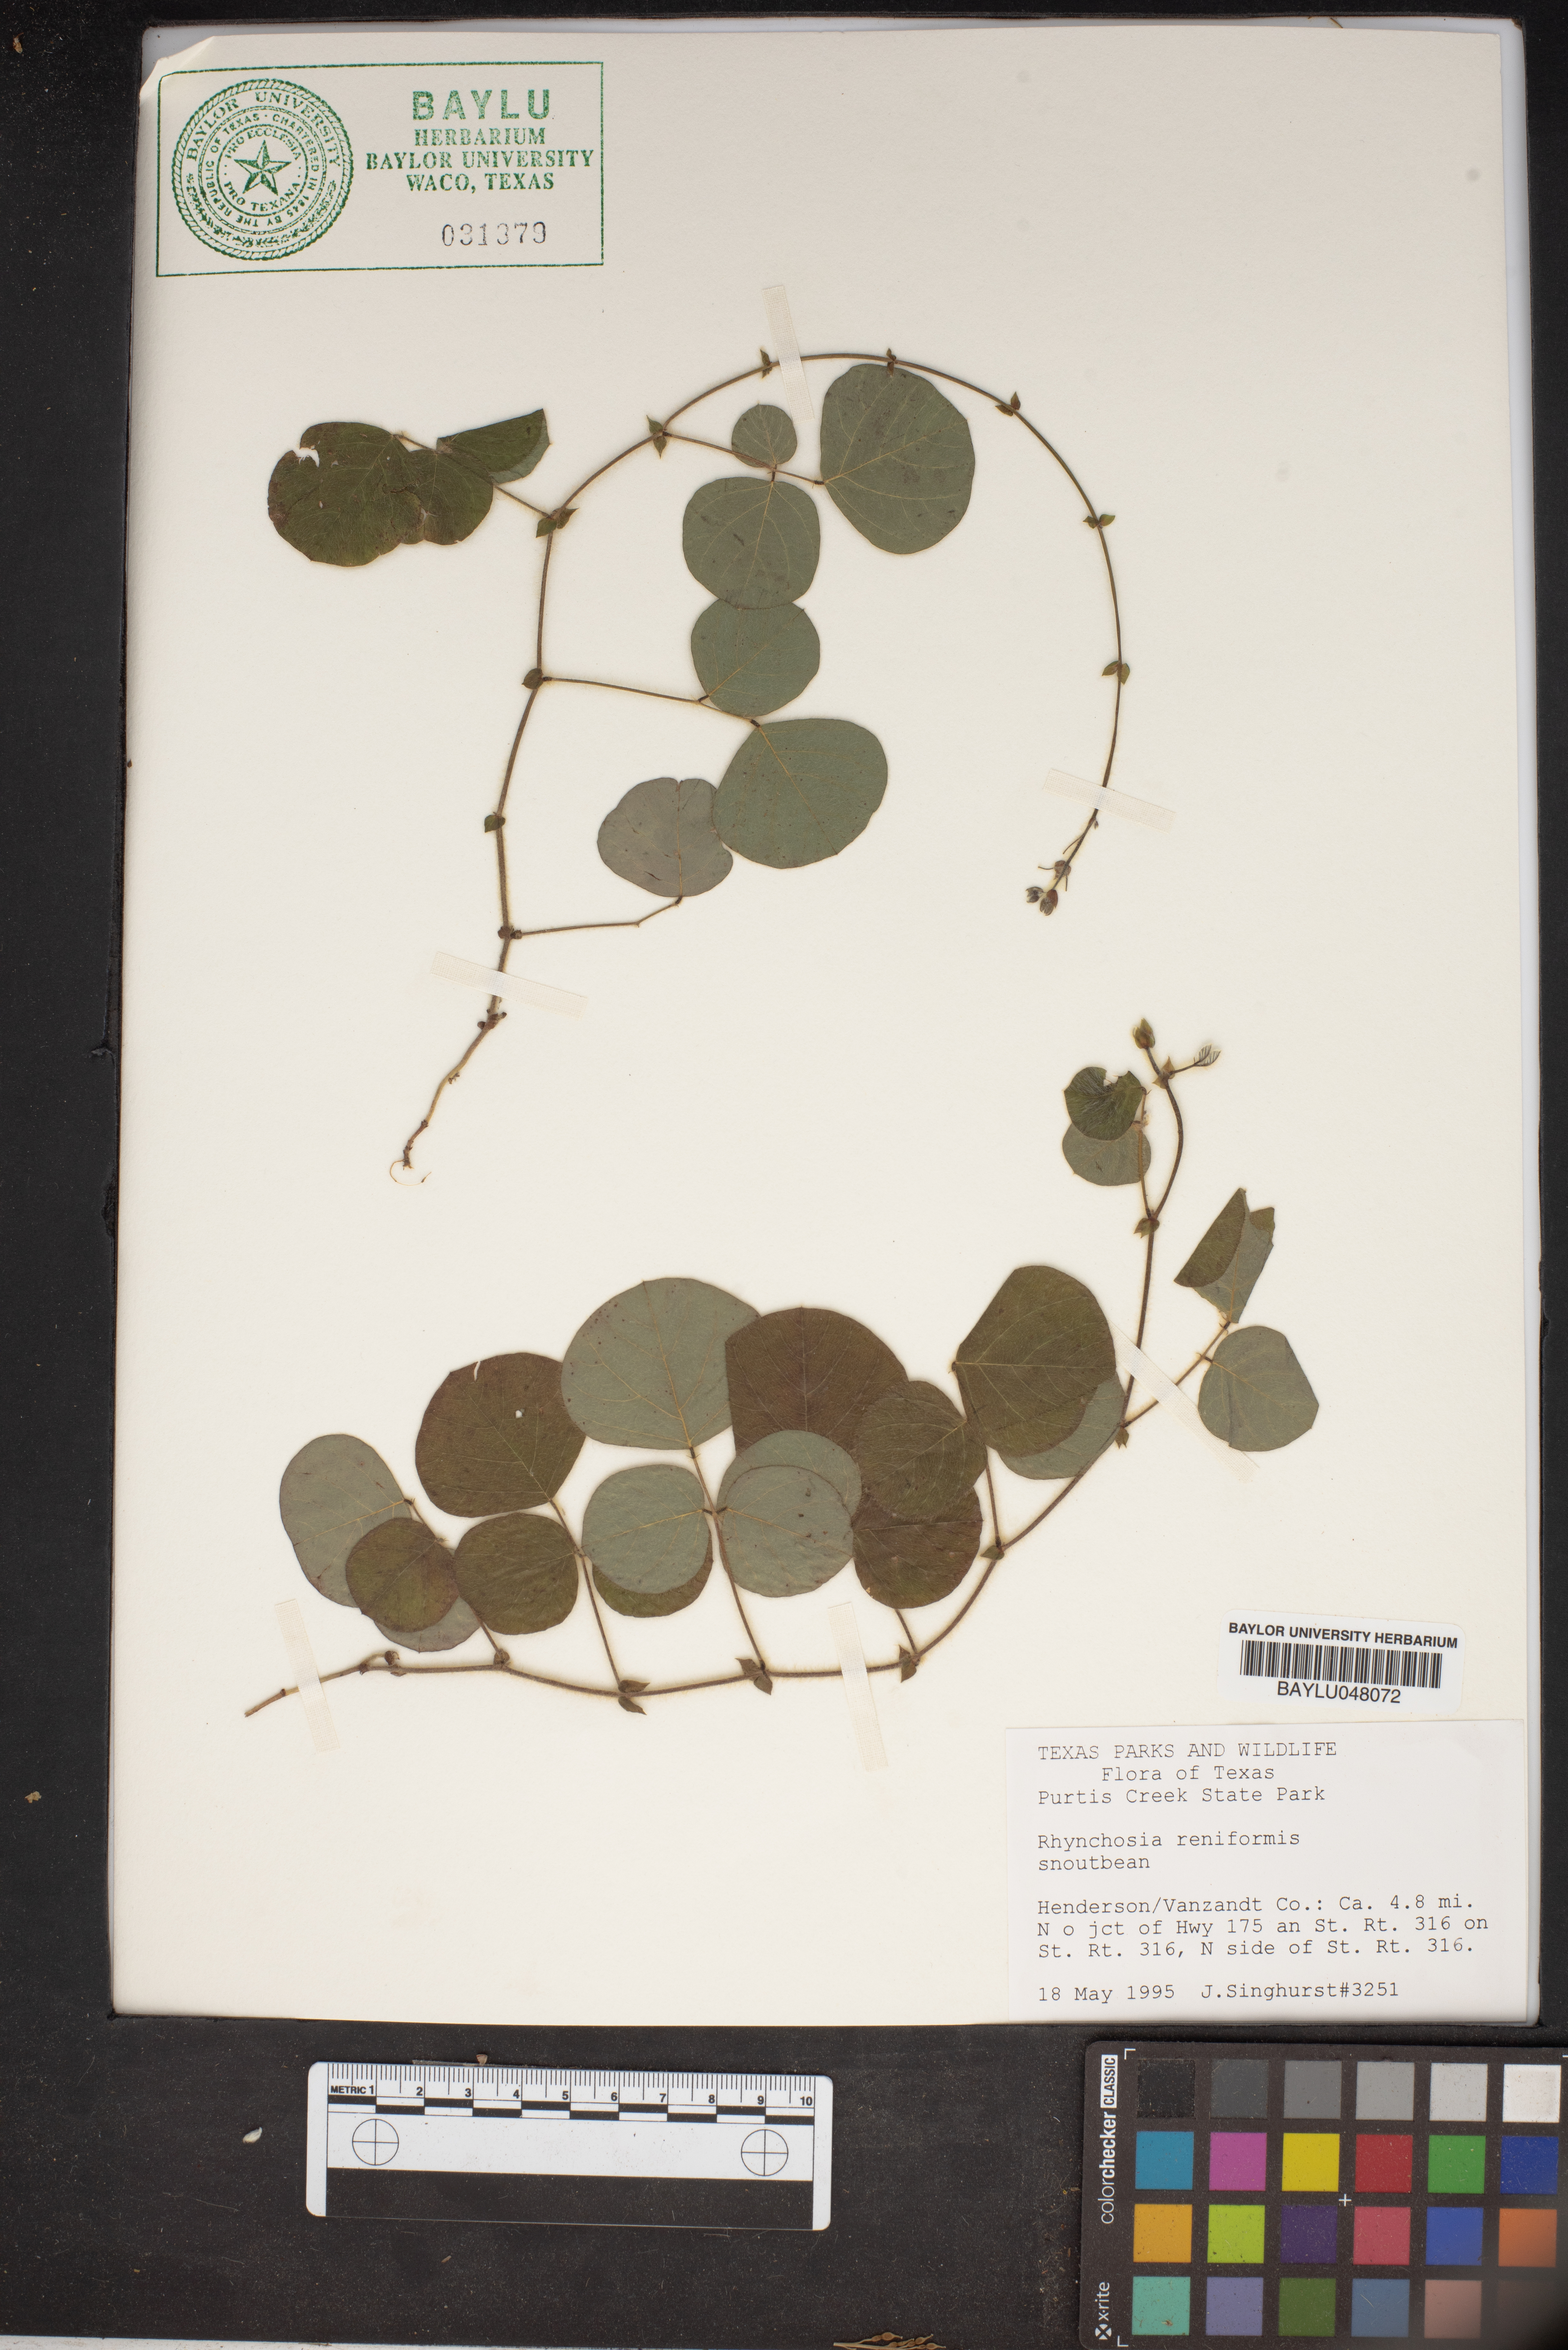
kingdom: Plantae
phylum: Tracheophyta
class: Magnoliopsida
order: Fabales
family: Fabaceae
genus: Rhynchosia
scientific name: Rhynchosia reniformis
